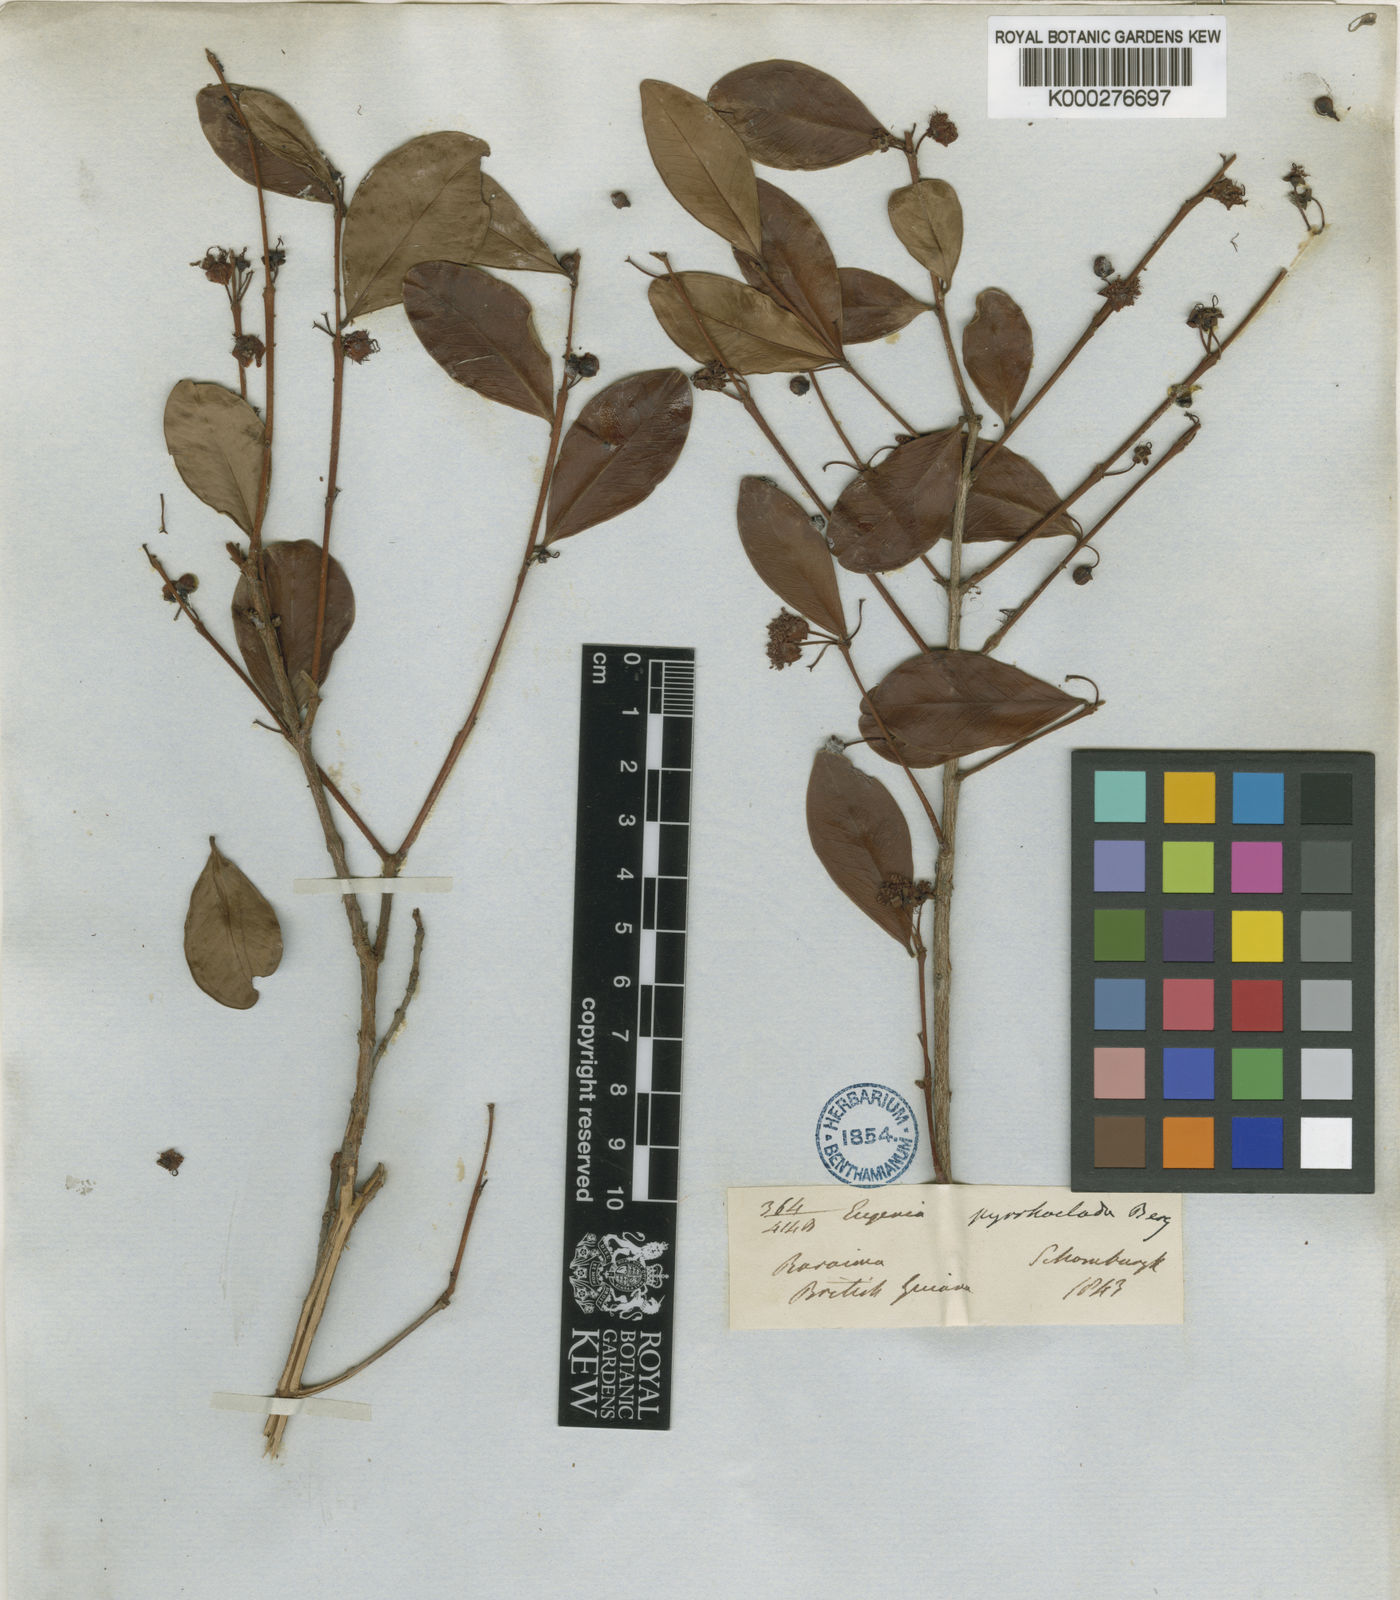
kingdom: Plantae
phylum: Tracheophyta
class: Magnoliopsida
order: Myrtales
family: Myrtaceae
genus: Eugenia
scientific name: Eugenia punicifolia
